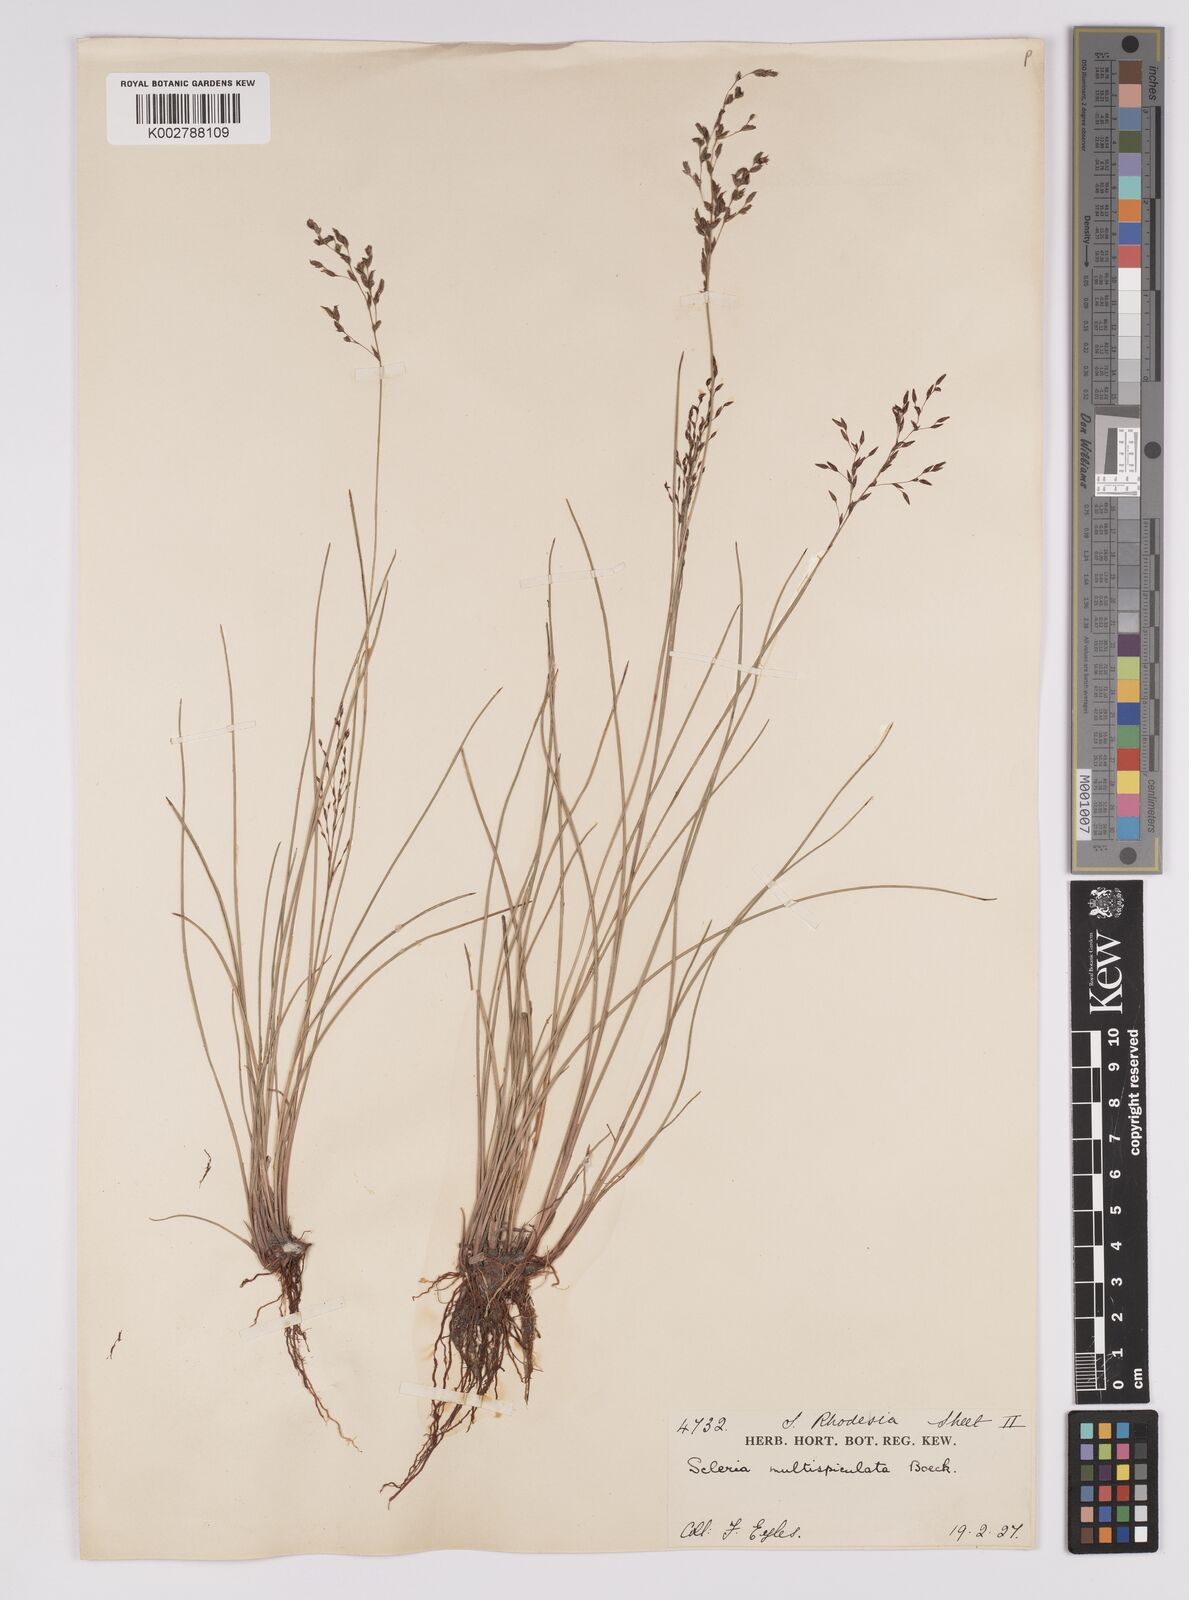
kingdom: Plantae
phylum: Tracheophyta
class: Liliopsida
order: Poales
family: Cyperaceae
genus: Scleria
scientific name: Scleria pooides
